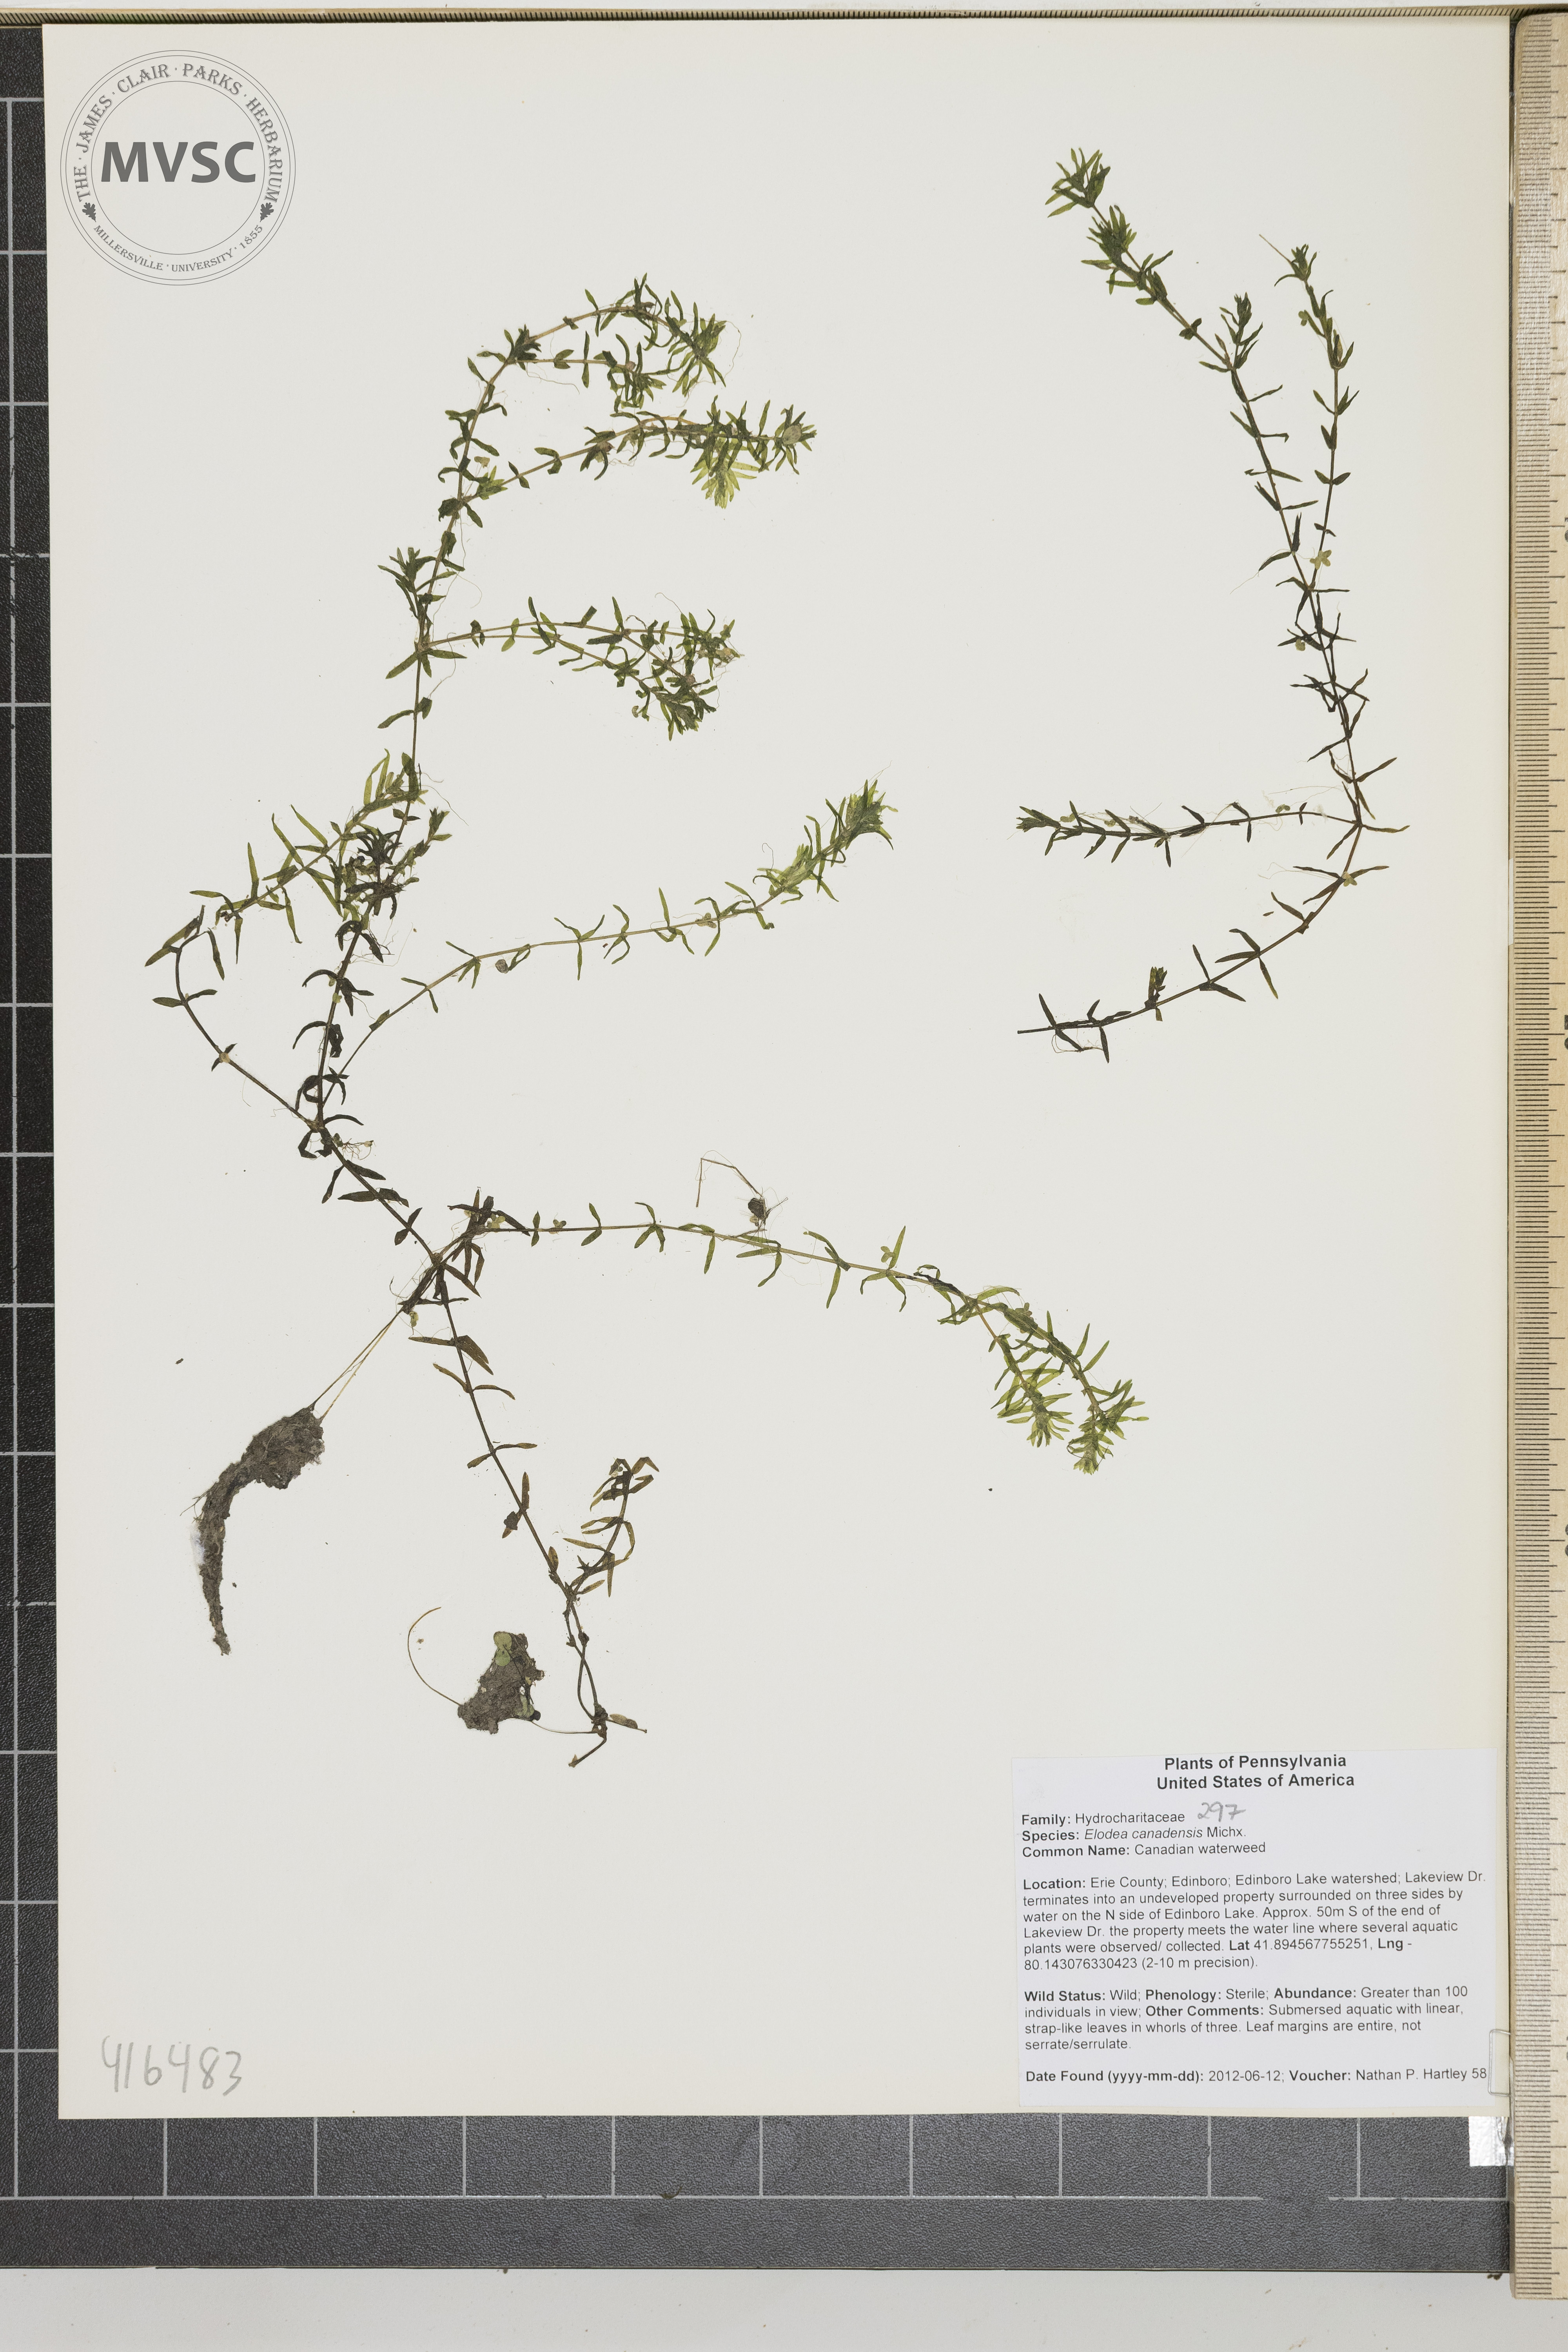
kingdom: Plantae
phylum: Tracheophyta
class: Liliopsida
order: Alismatales
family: Hydrocharitaceae
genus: Elodea
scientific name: Elodea canadensis
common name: Canadian waterweed
